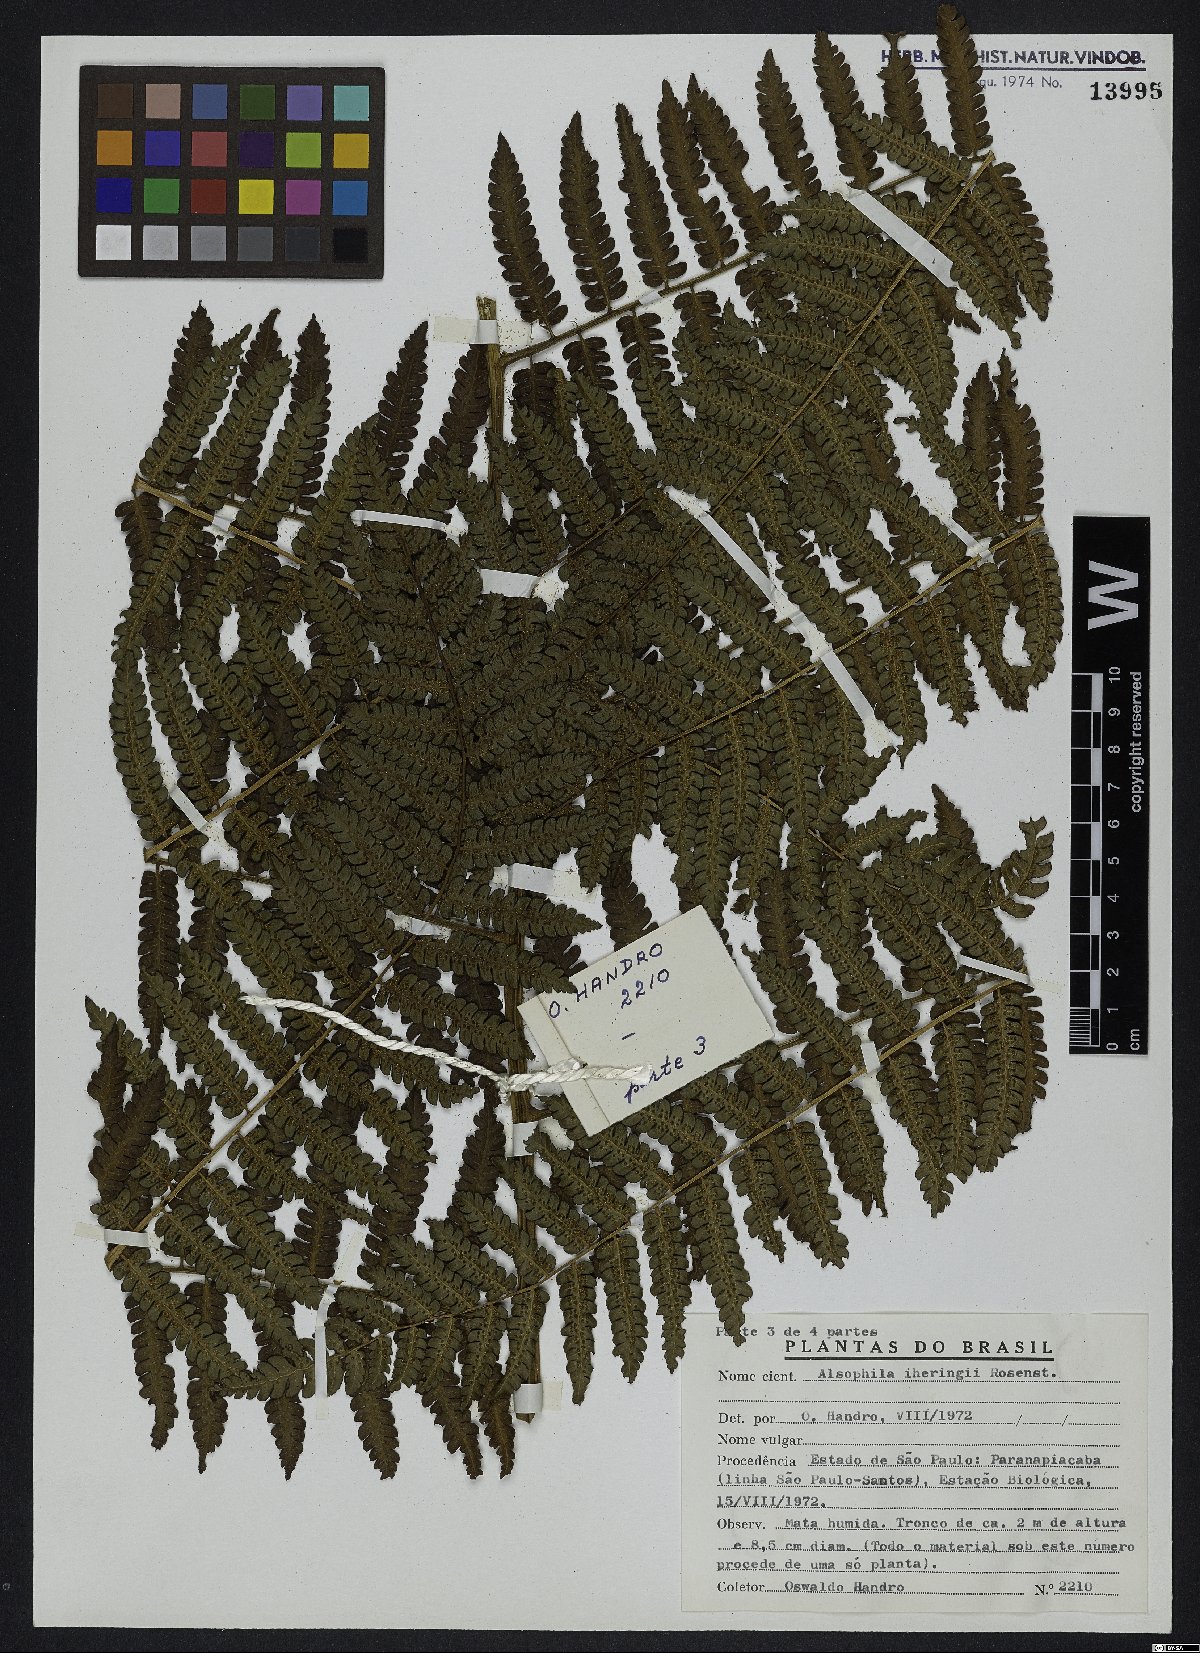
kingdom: Plantae
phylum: Tracheophyta
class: Polypodiopsida
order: Cyatheales
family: Cyatheaceae
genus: Cyathea
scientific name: Cyathea iheringii
